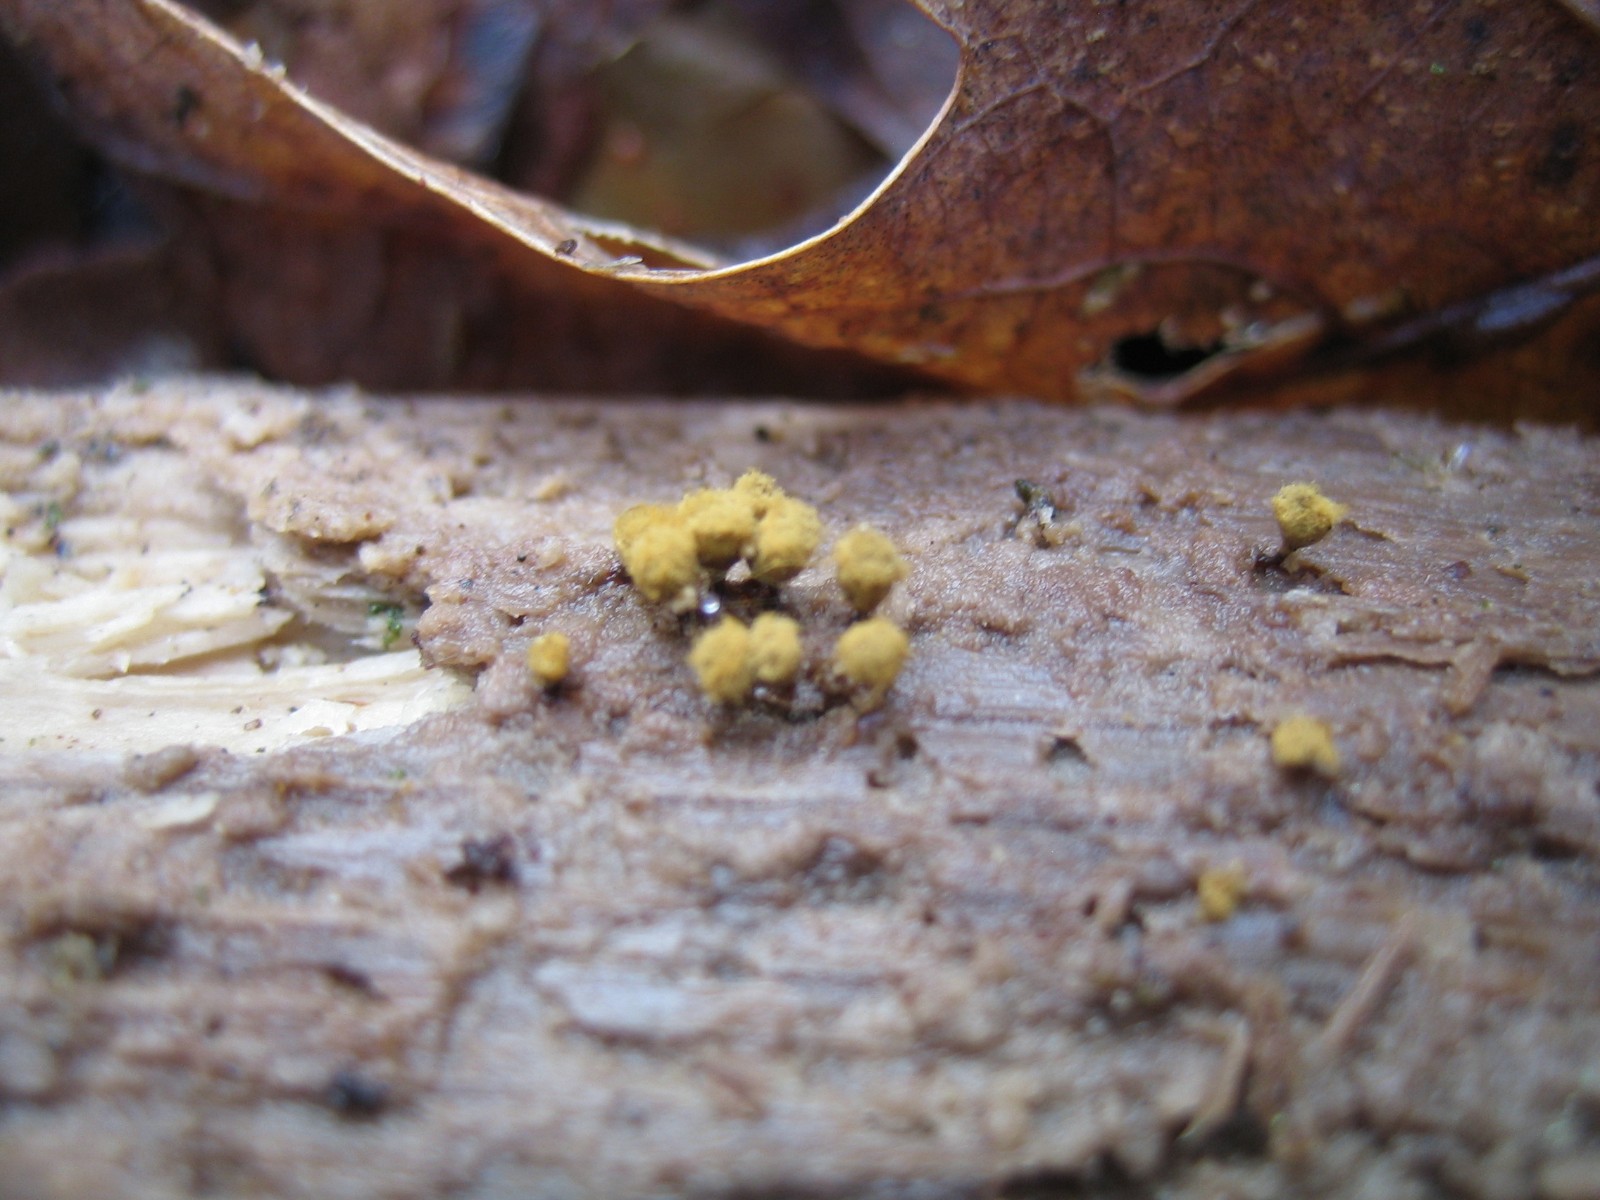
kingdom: Protozoa
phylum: Mycetozoa
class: Myxomycetes
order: Trichiales
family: Trichiaceae
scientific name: Trichiaceae
